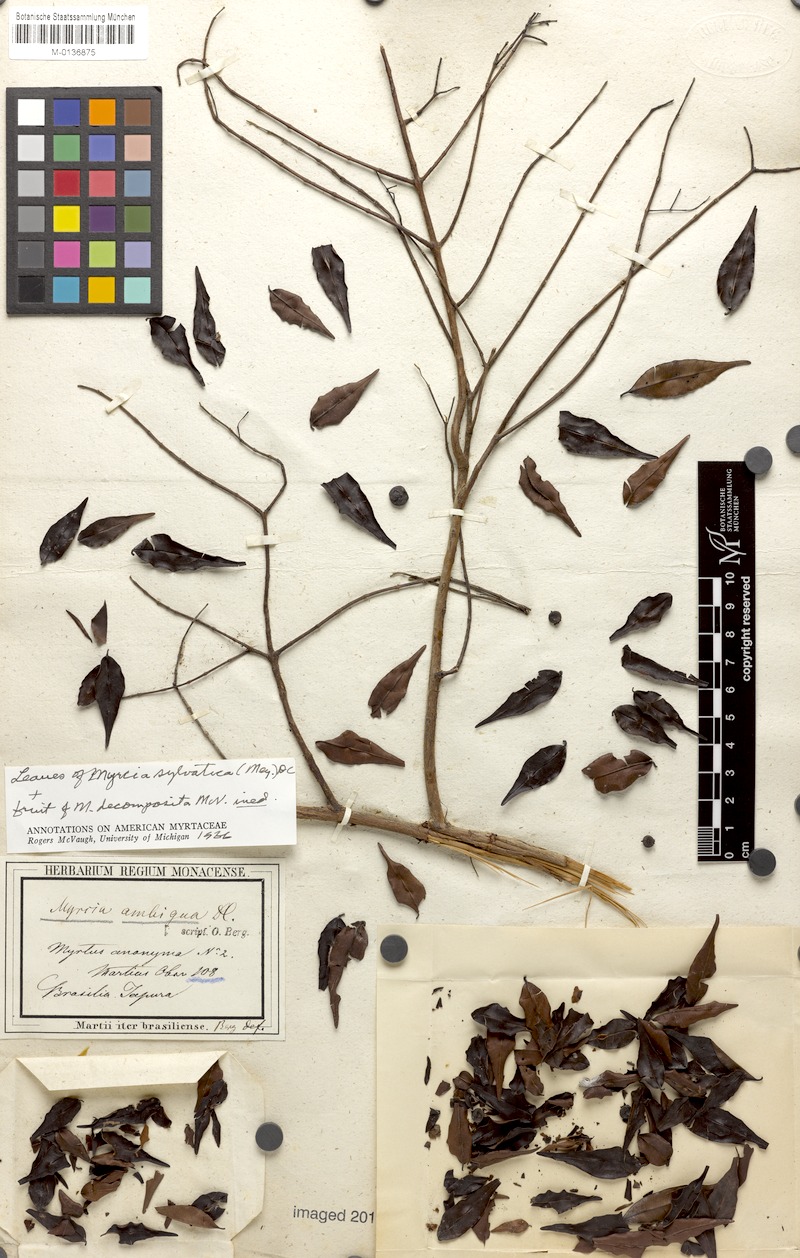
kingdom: Plantae
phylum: Tracheophyta
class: Magnoliopsida
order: Myrtales
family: Myrtaceae
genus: Myrcia
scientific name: Myrcia sylvatica
